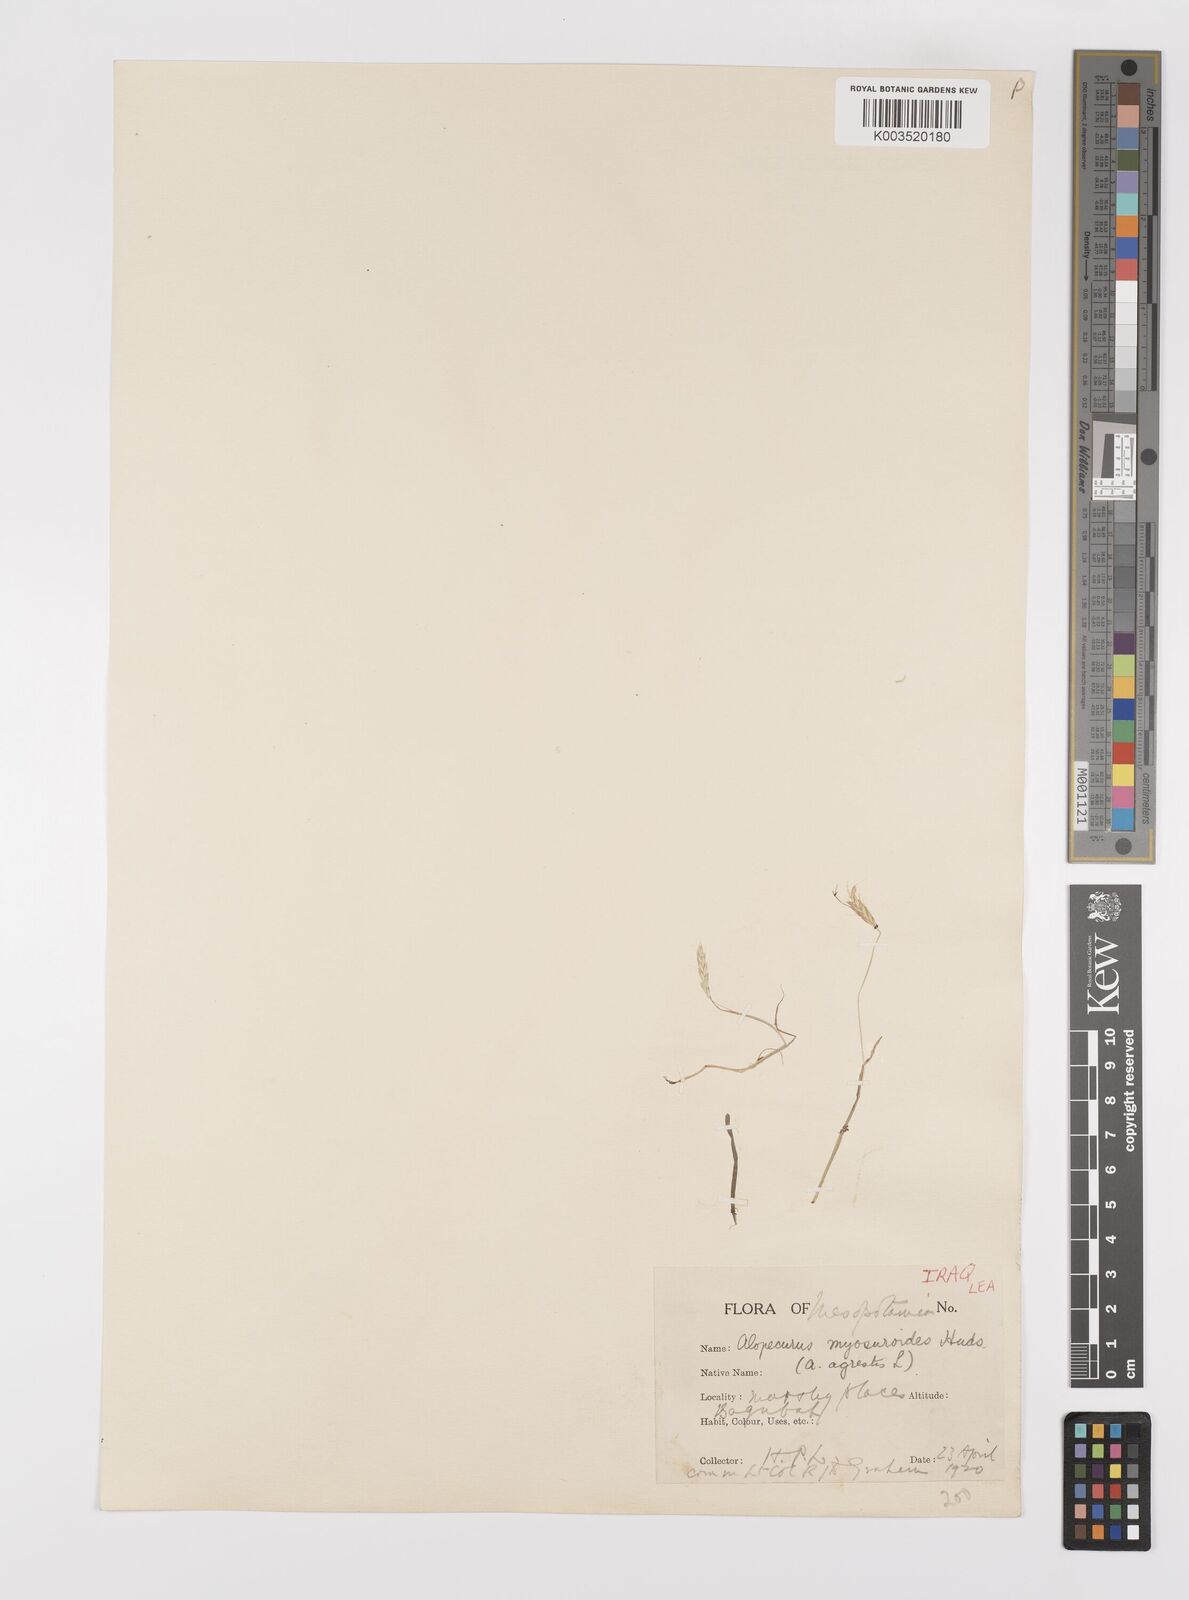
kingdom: Plantae
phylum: Tracheophyta
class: Liliopsida
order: Poales
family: Poaceae
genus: Alopecurus
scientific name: Alopecurus myosuroides
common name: Black-grass
